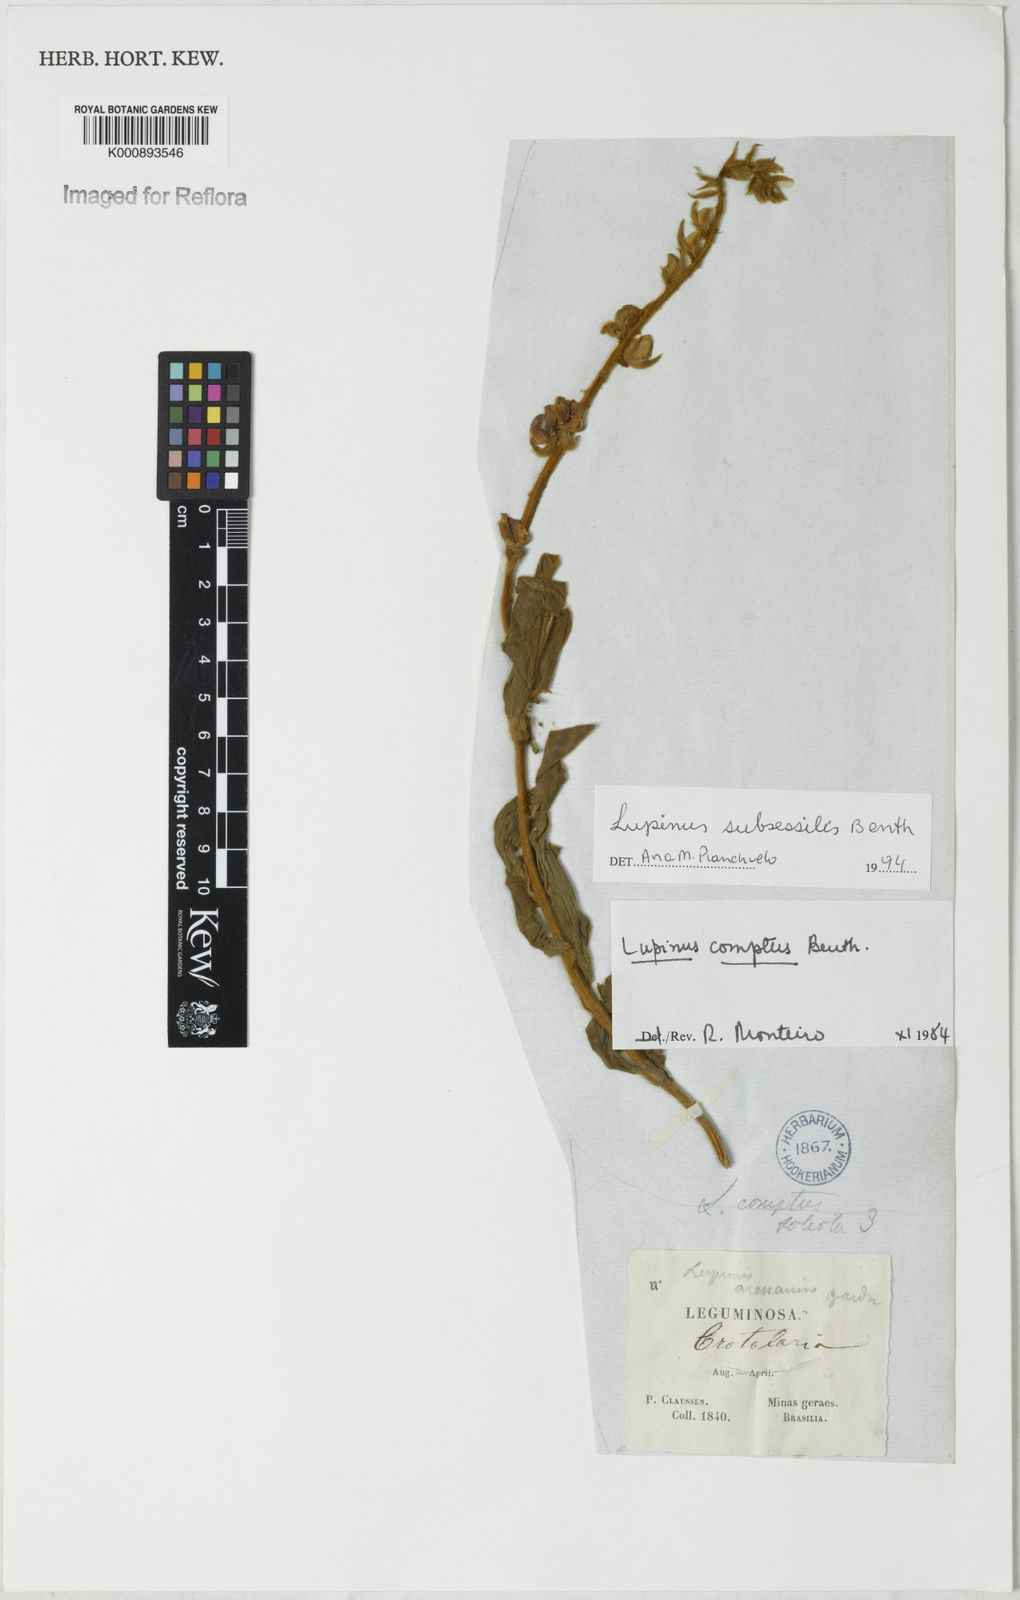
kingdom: Plantae
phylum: Tracheophyta
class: Magnoliopsida
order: Fabales
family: Fabaceae
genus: Lupinus
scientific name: Lupinus subsessilis
